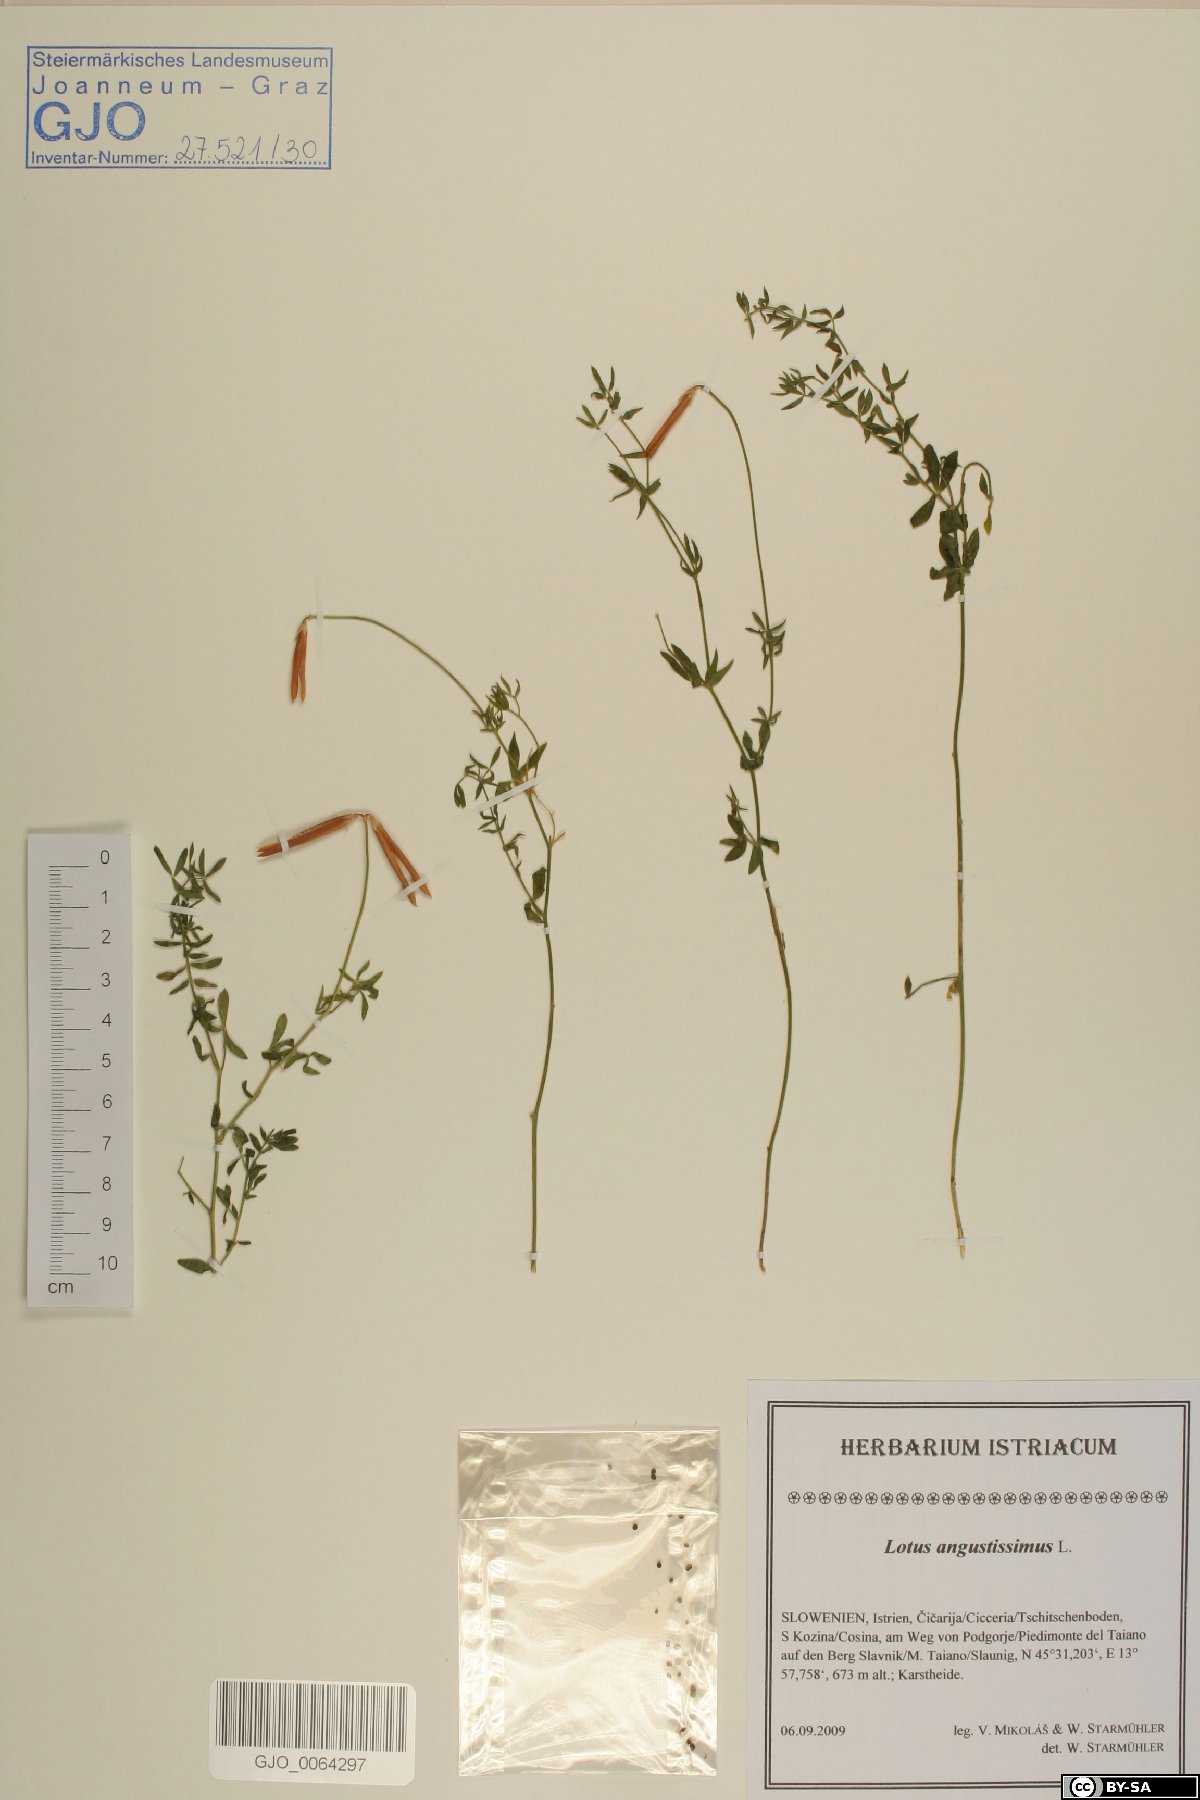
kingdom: Plantae
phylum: Tracheophyta
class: Magnoliopsida
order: Fabales
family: Fabaceae
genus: Lotus
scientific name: Lotus angustissimus
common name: Slender bird's-foot trefoil
